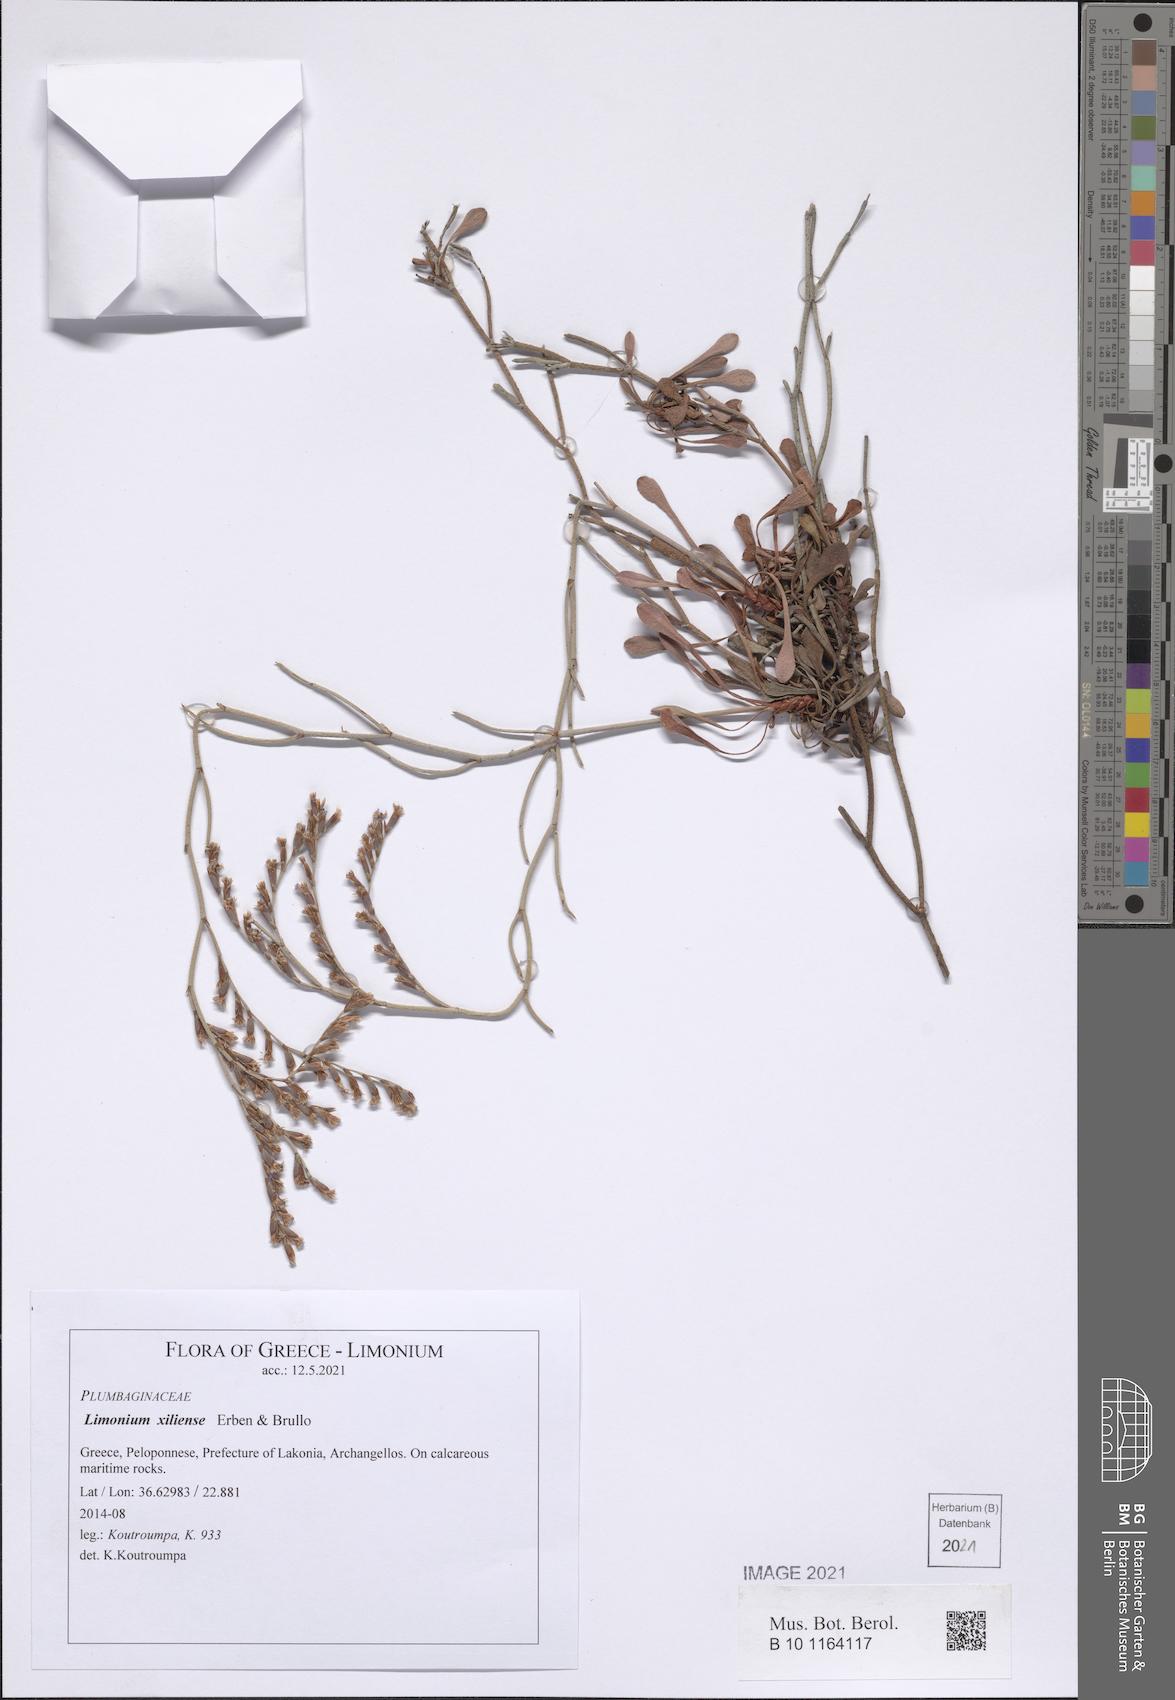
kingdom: Plantae
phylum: Tracheophyta
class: Magnoliopsida
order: Caryophyllales
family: Plumbaginaceae
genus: Limonium
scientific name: Limonium xiliense
